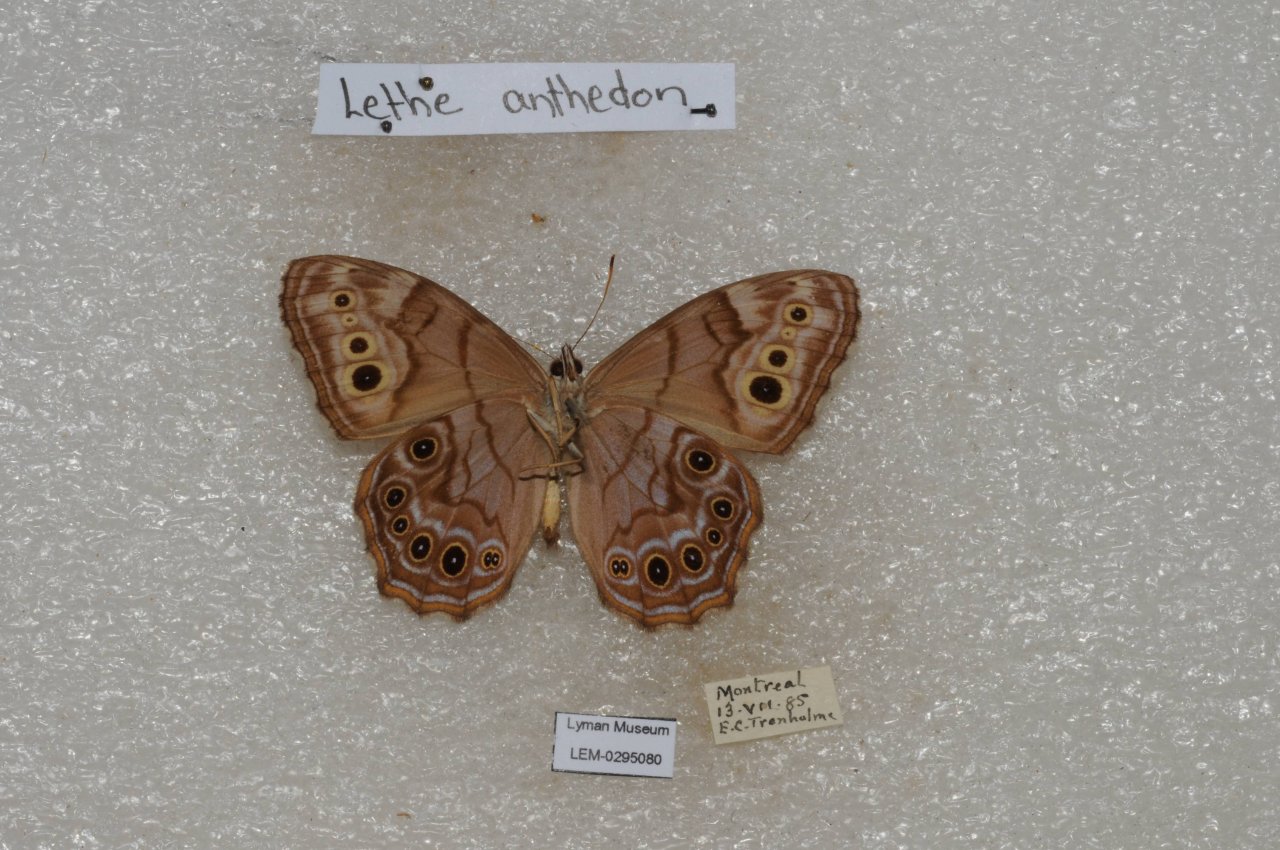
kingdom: Animalia
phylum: Arthropoda
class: Insecta
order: Lepidoptera
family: Nymphalidae
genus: Lethe
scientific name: Lethe anthedon
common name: Northern Pearly-Eye
